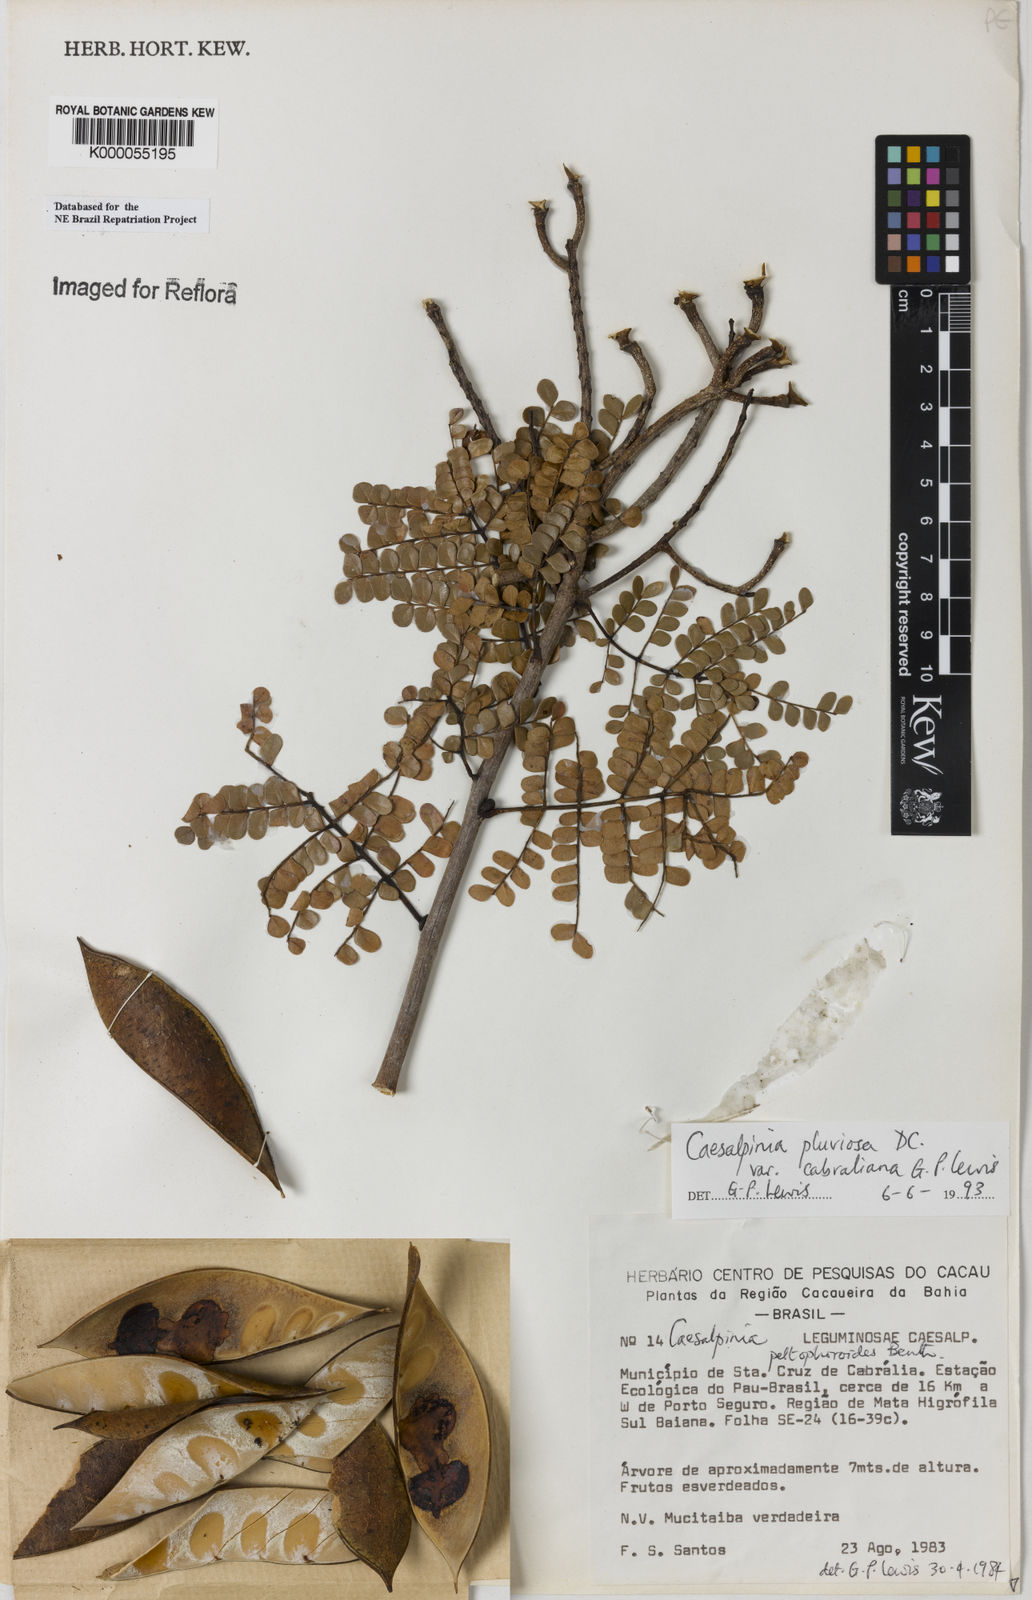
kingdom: Plantae
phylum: Tracheophyta
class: Magnoliopsida
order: Fabales
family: Fabaceae
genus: Cenostigma
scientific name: Cenostigma pluviosum
